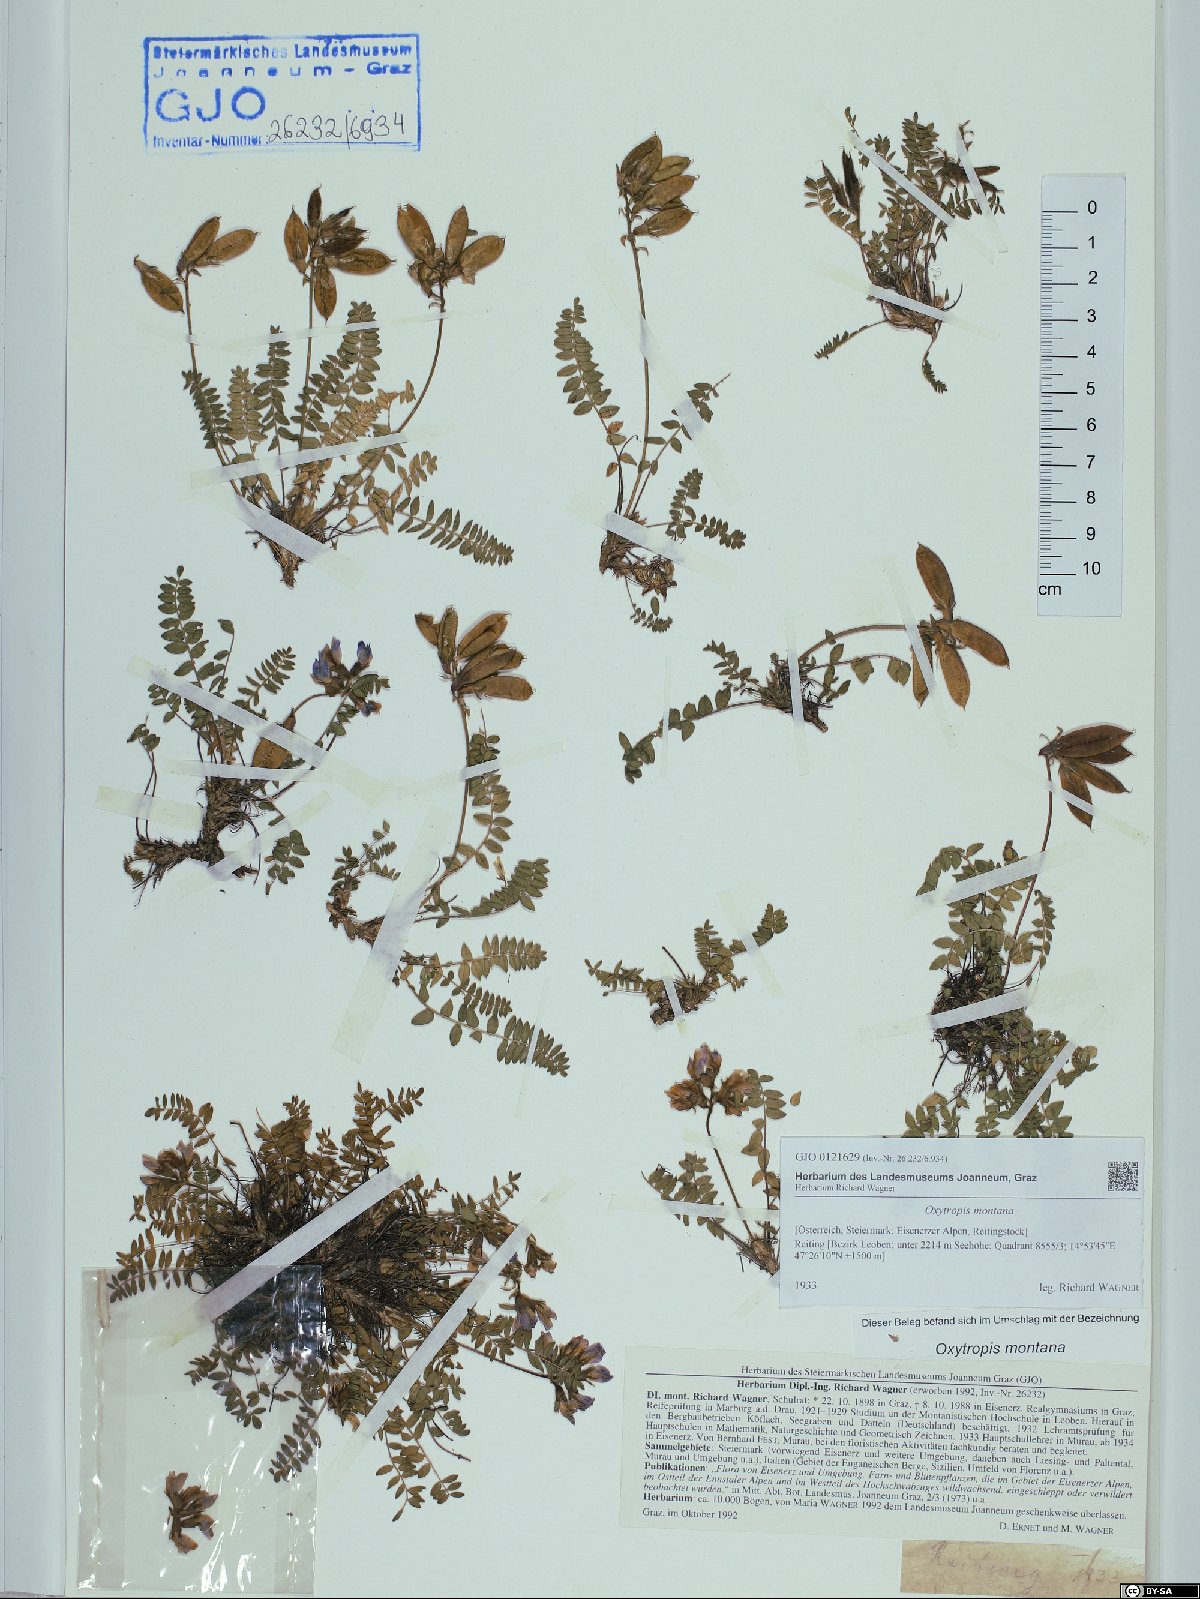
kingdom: Plantae
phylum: Tracheophyta
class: Magnoliopsida
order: Fabales
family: Fabaceae
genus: Oxytropis
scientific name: Oxytropis montana
